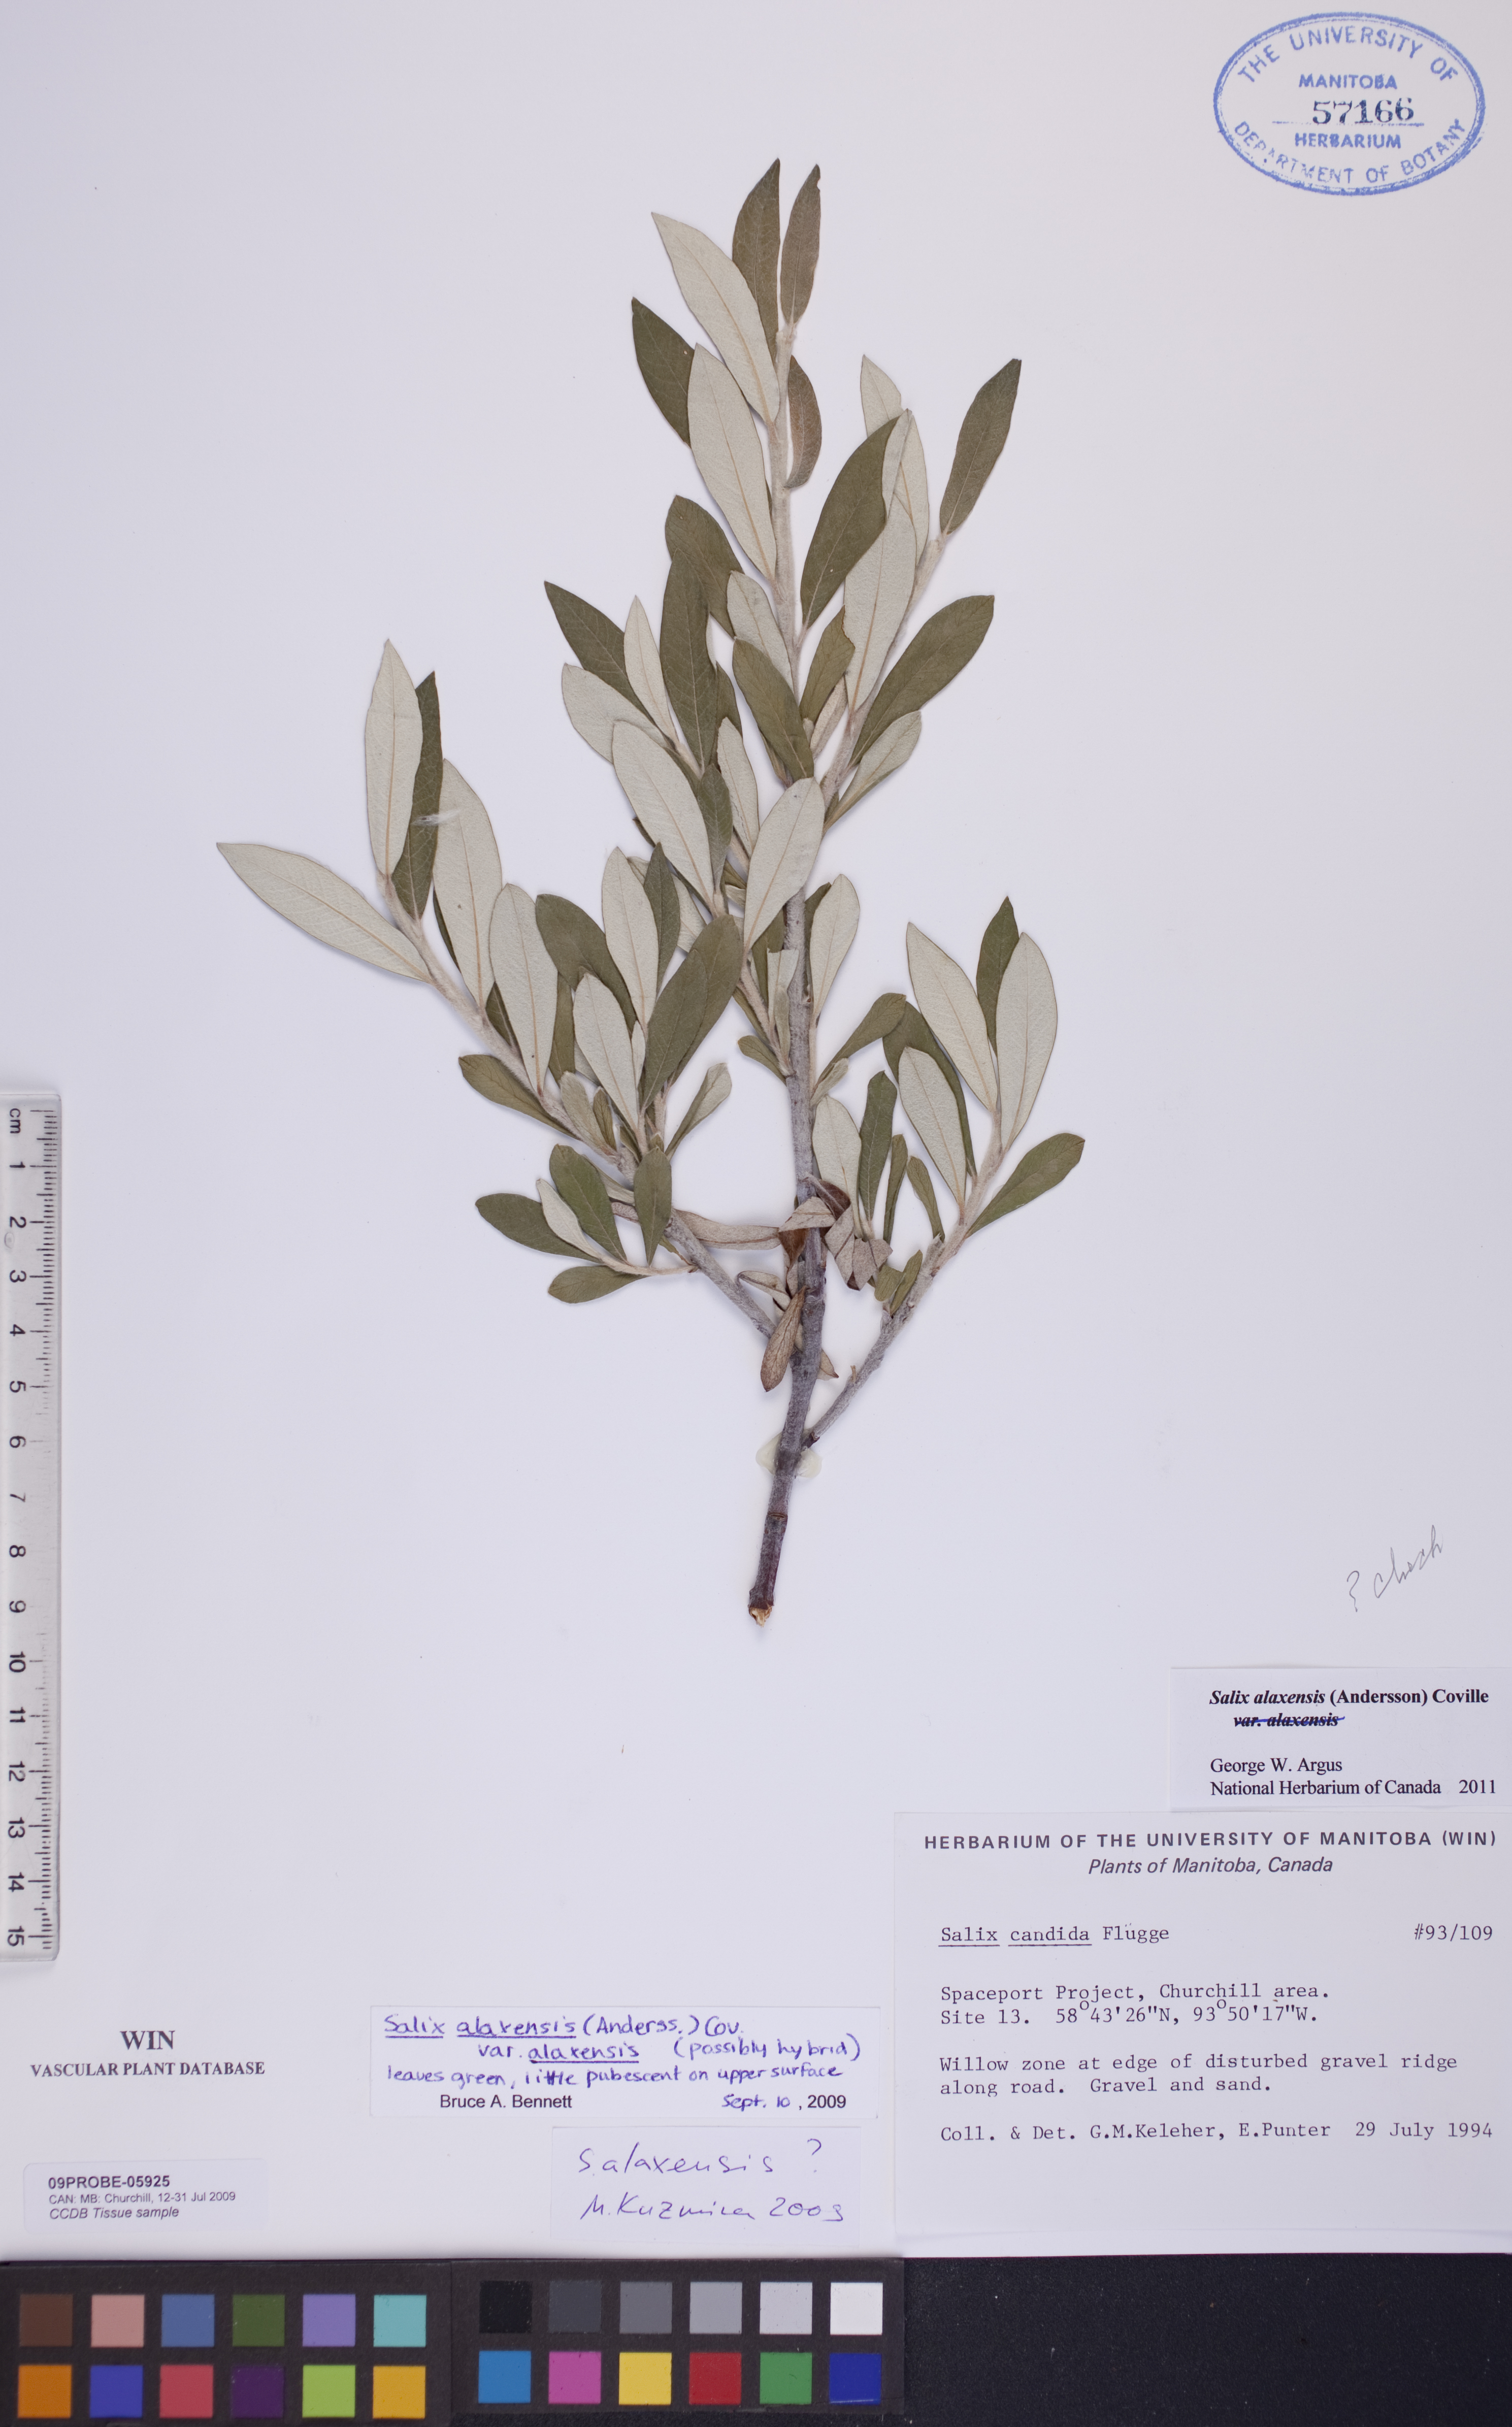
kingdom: Plantae
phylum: Tracheophyta
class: Magnoliopsida
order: Malpighiales
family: Salicaceae
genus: Salix
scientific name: Salix alaxensis
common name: Feltleaf willow
